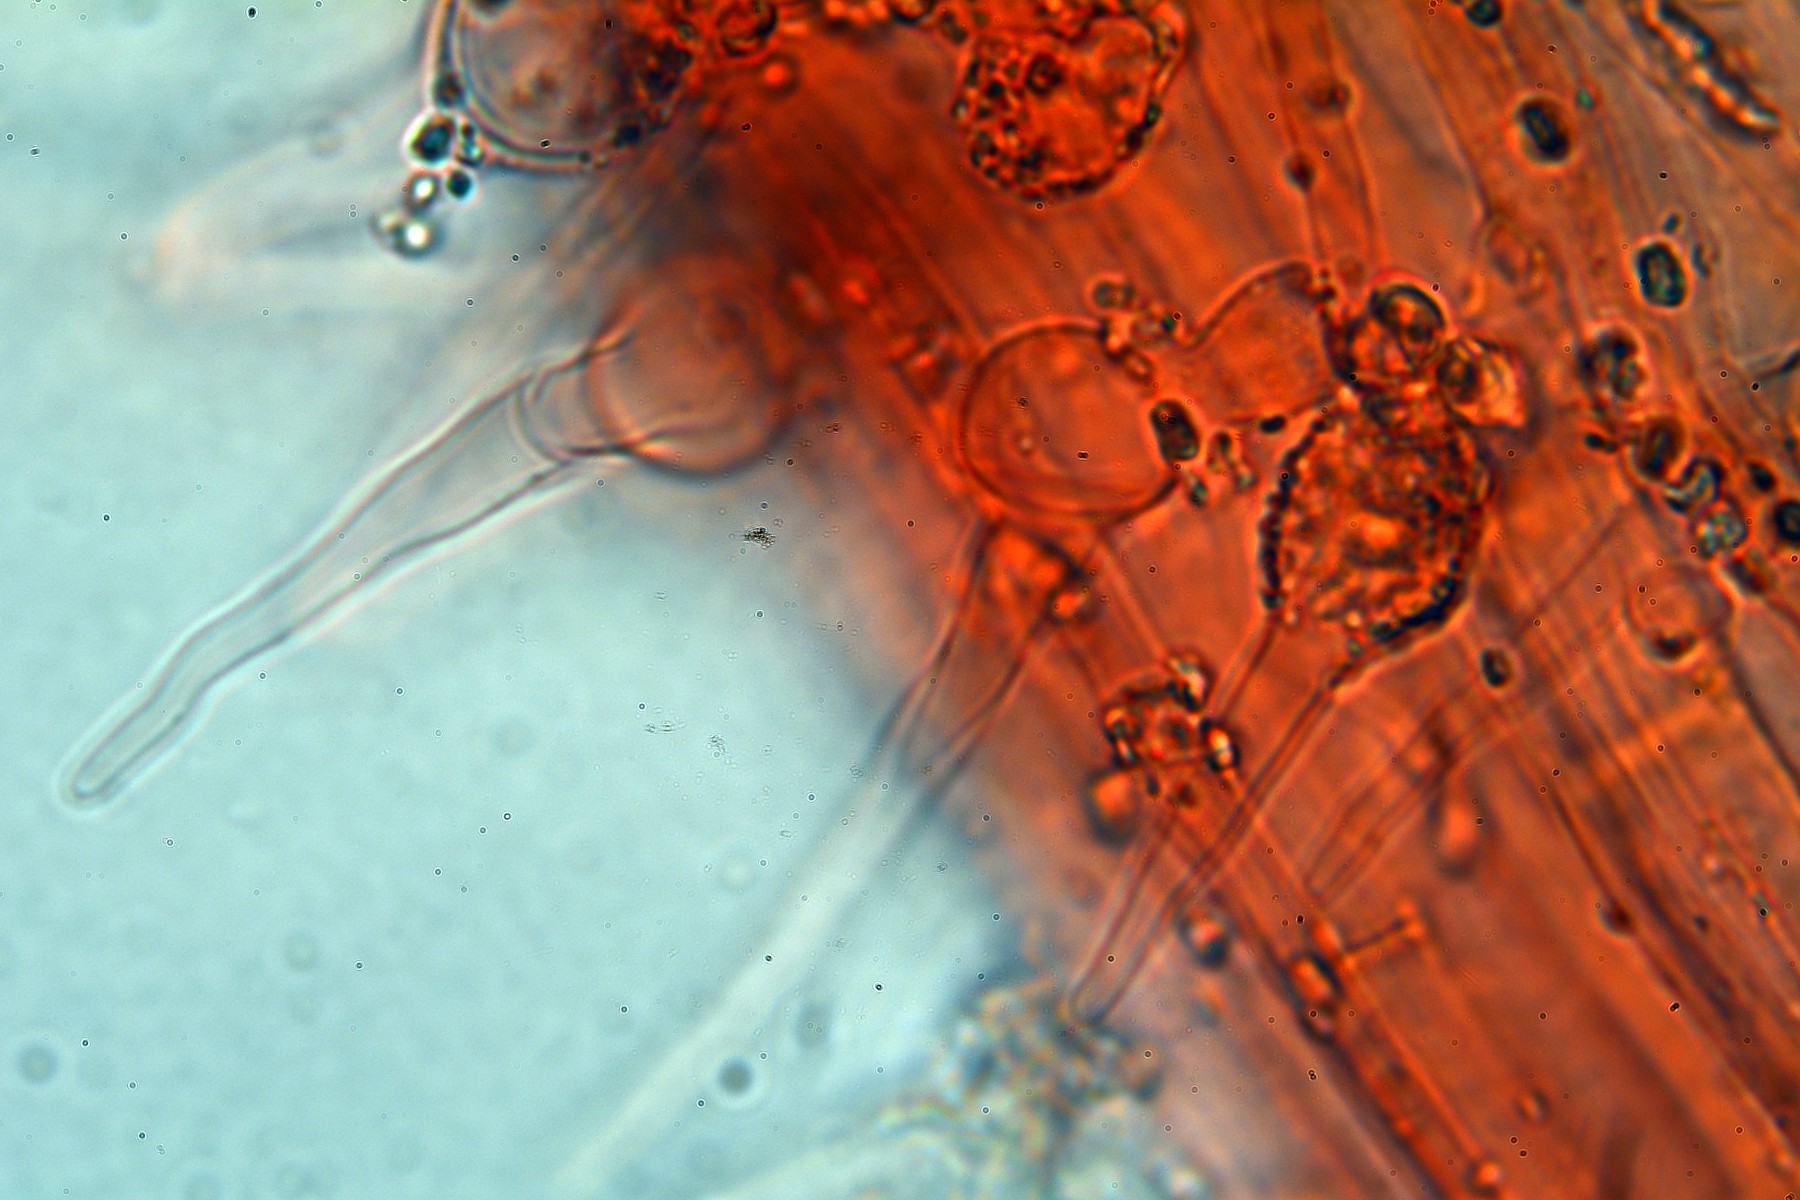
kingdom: Fungi
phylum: Basidiomycota
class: Agaricomycetes
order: Agaricales
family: Psathyrellaceae
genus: Coprinellus
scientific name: Coprinellus pusillulus
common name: lillebitte blækhat
